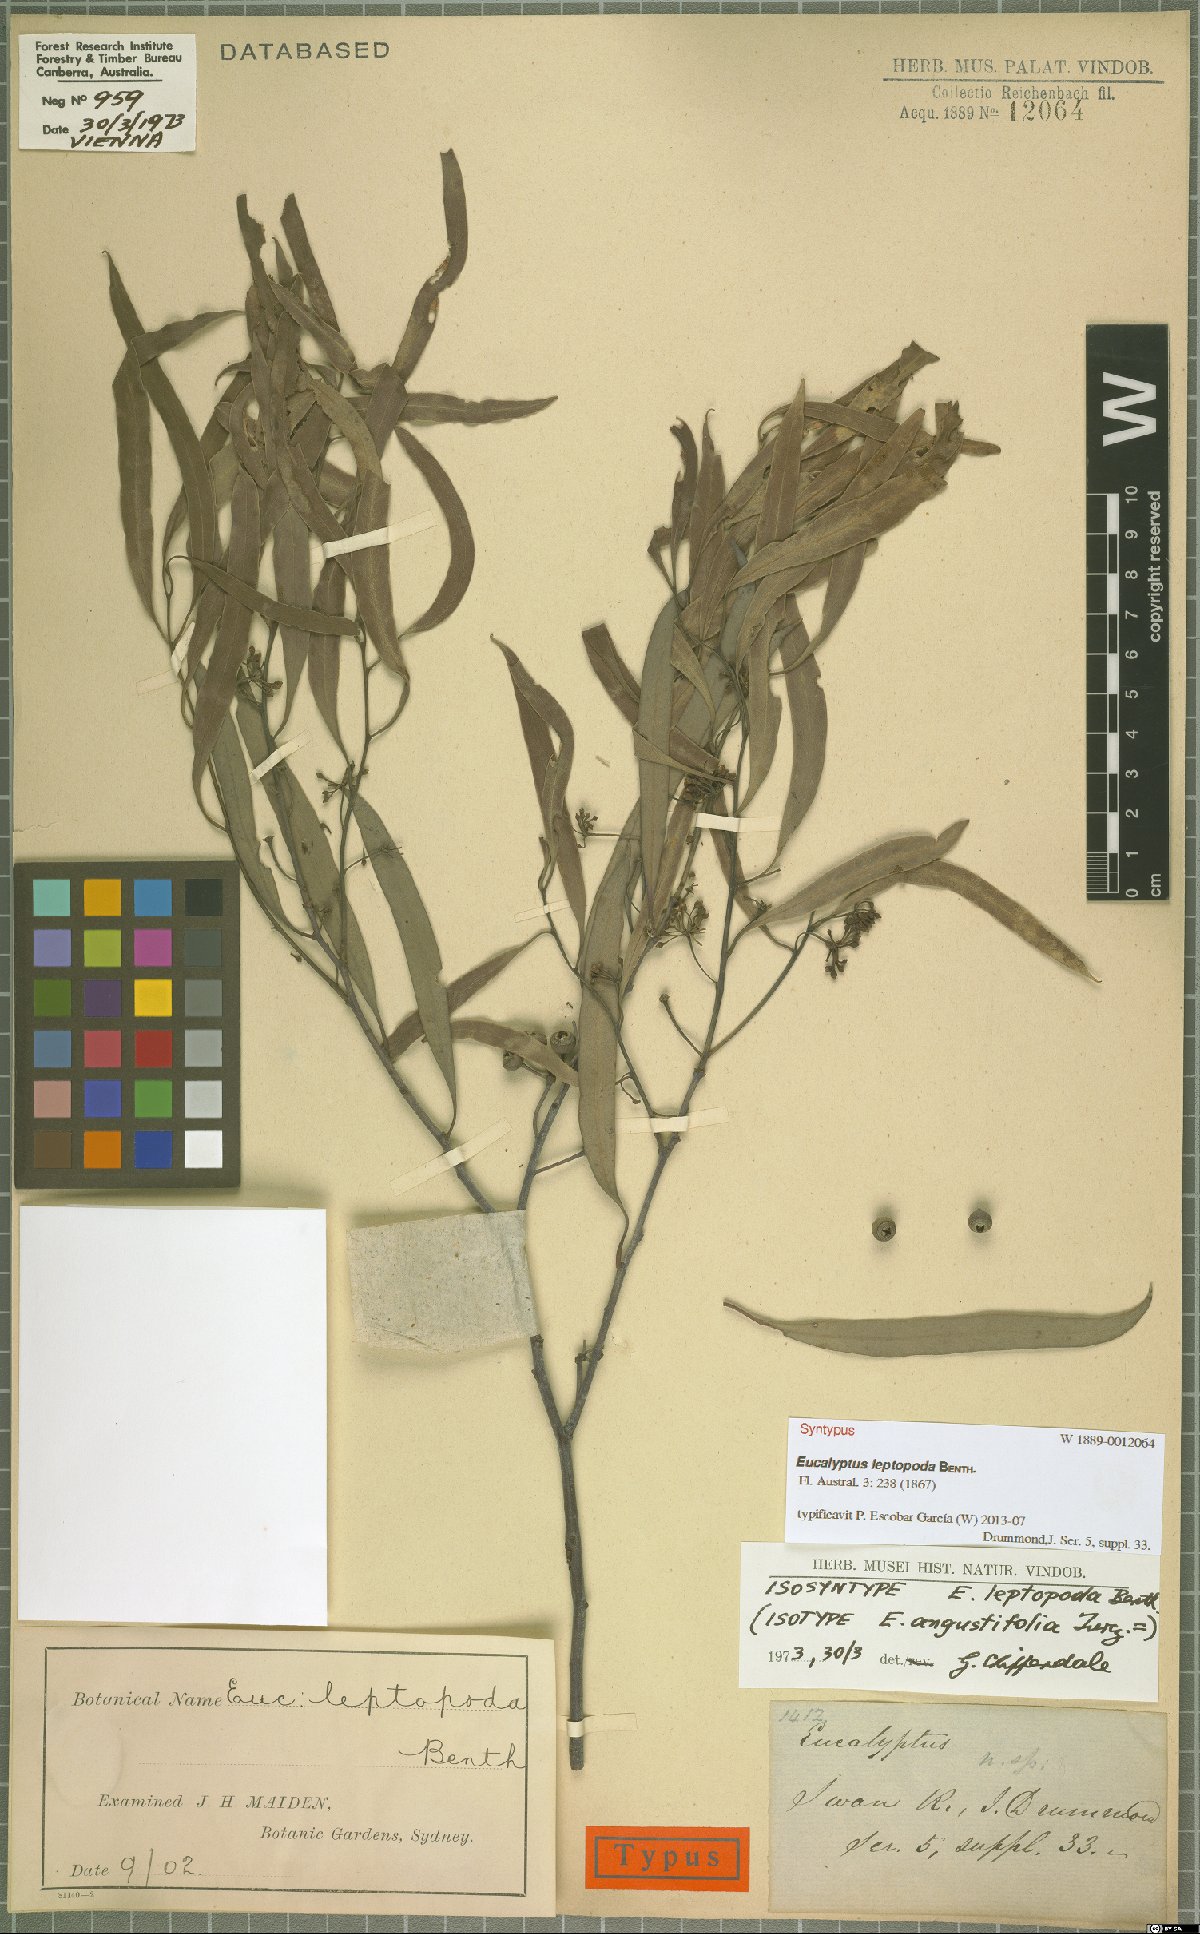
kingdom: Plantae
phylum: Tracheophyta
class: Magnoliopsida
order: Myrtales
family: Myrtaceae
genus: Eucalyptus
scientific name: Eucalyptus leptopoda
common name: Tammin mallee
